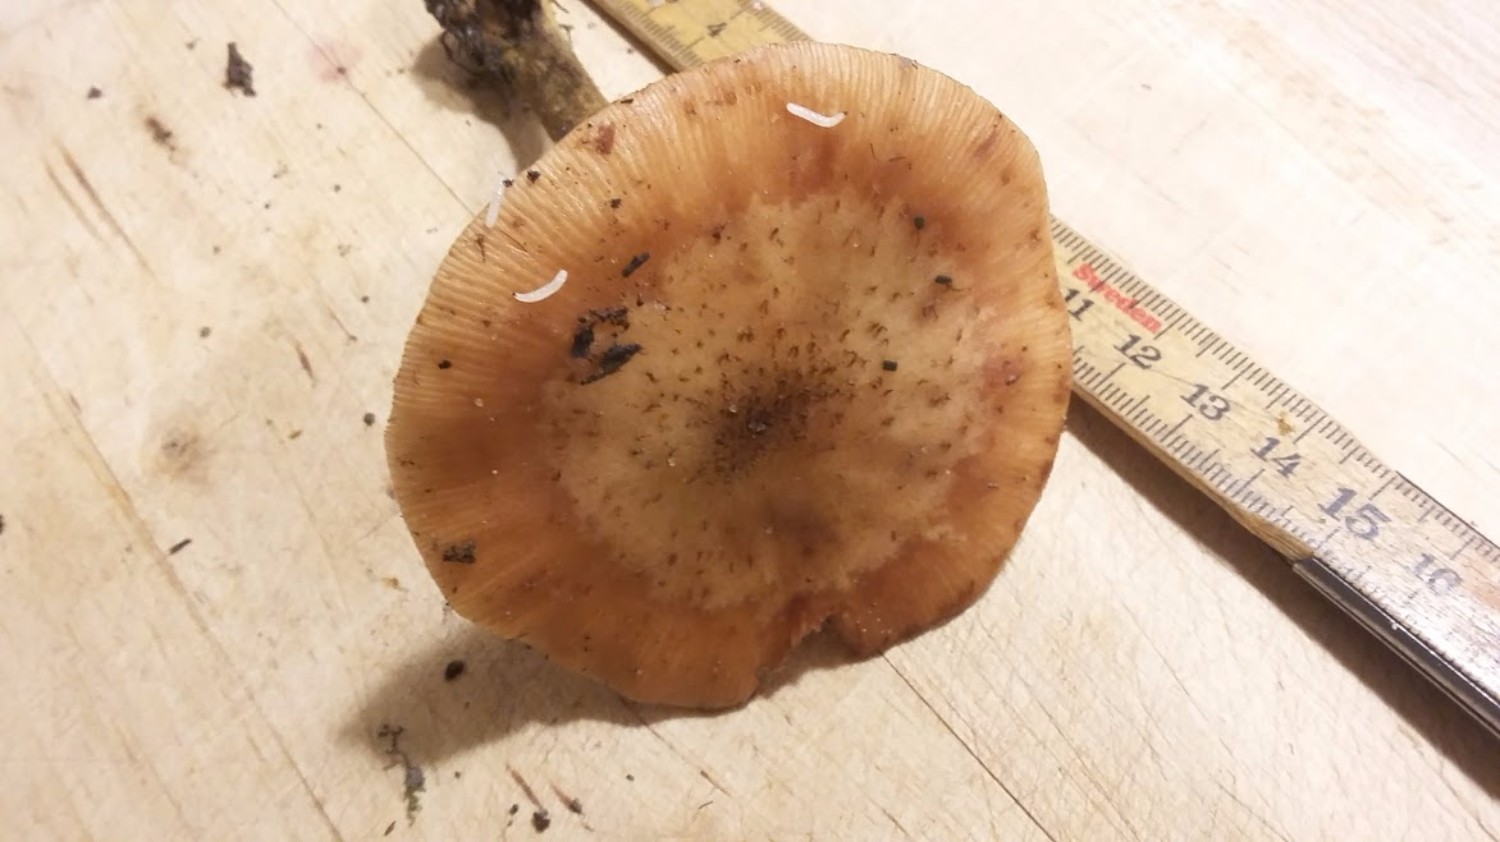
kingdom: Fungi
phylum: Basidiomycota
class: Agaricomycetes
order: Agaricales
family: Physalacriaceae
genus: Armillaria
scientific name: Armillaria lutea
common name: køllestokket honningsvamp
